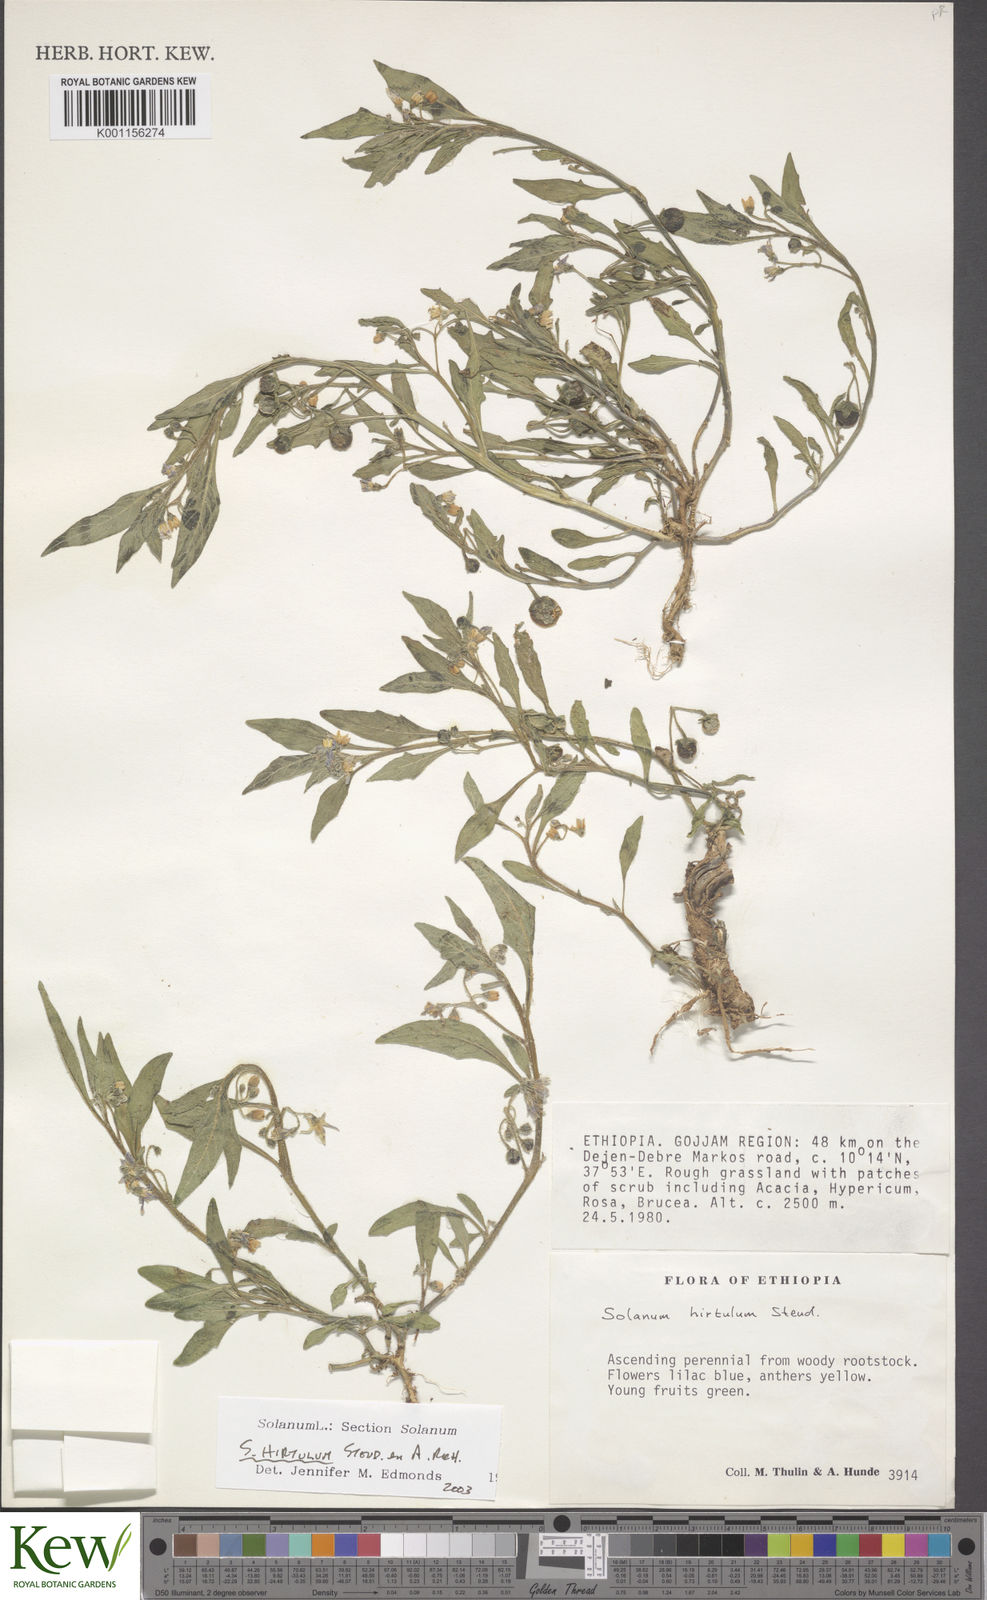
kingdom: Plantae
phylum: Tracheophyta
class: Magnoliopsida
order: Solanales
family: Solanaceae
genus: Solanum
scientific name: Solanum hirtulum
